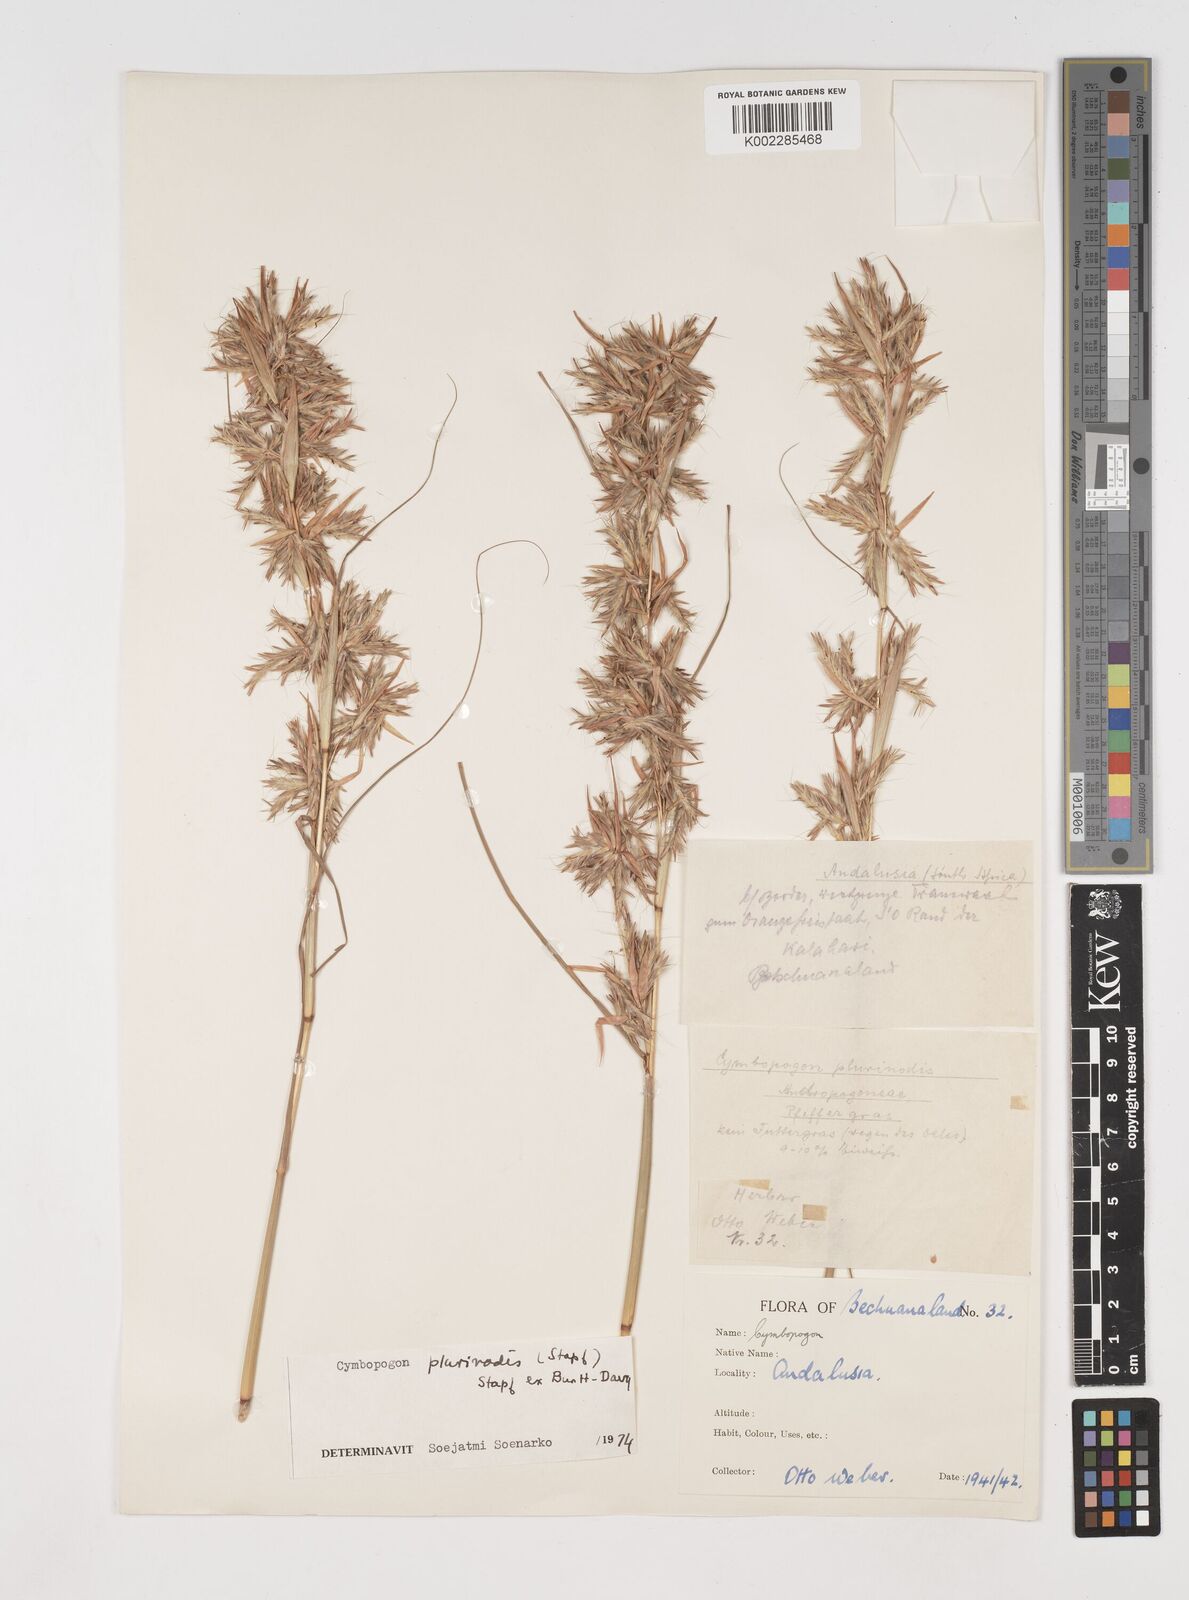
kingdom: Plantae
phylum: Tracheophyta
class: Liliopsida
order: Poales
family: Poaceae
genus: Cymbopogon
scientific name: Cymbopogon pospischilii
